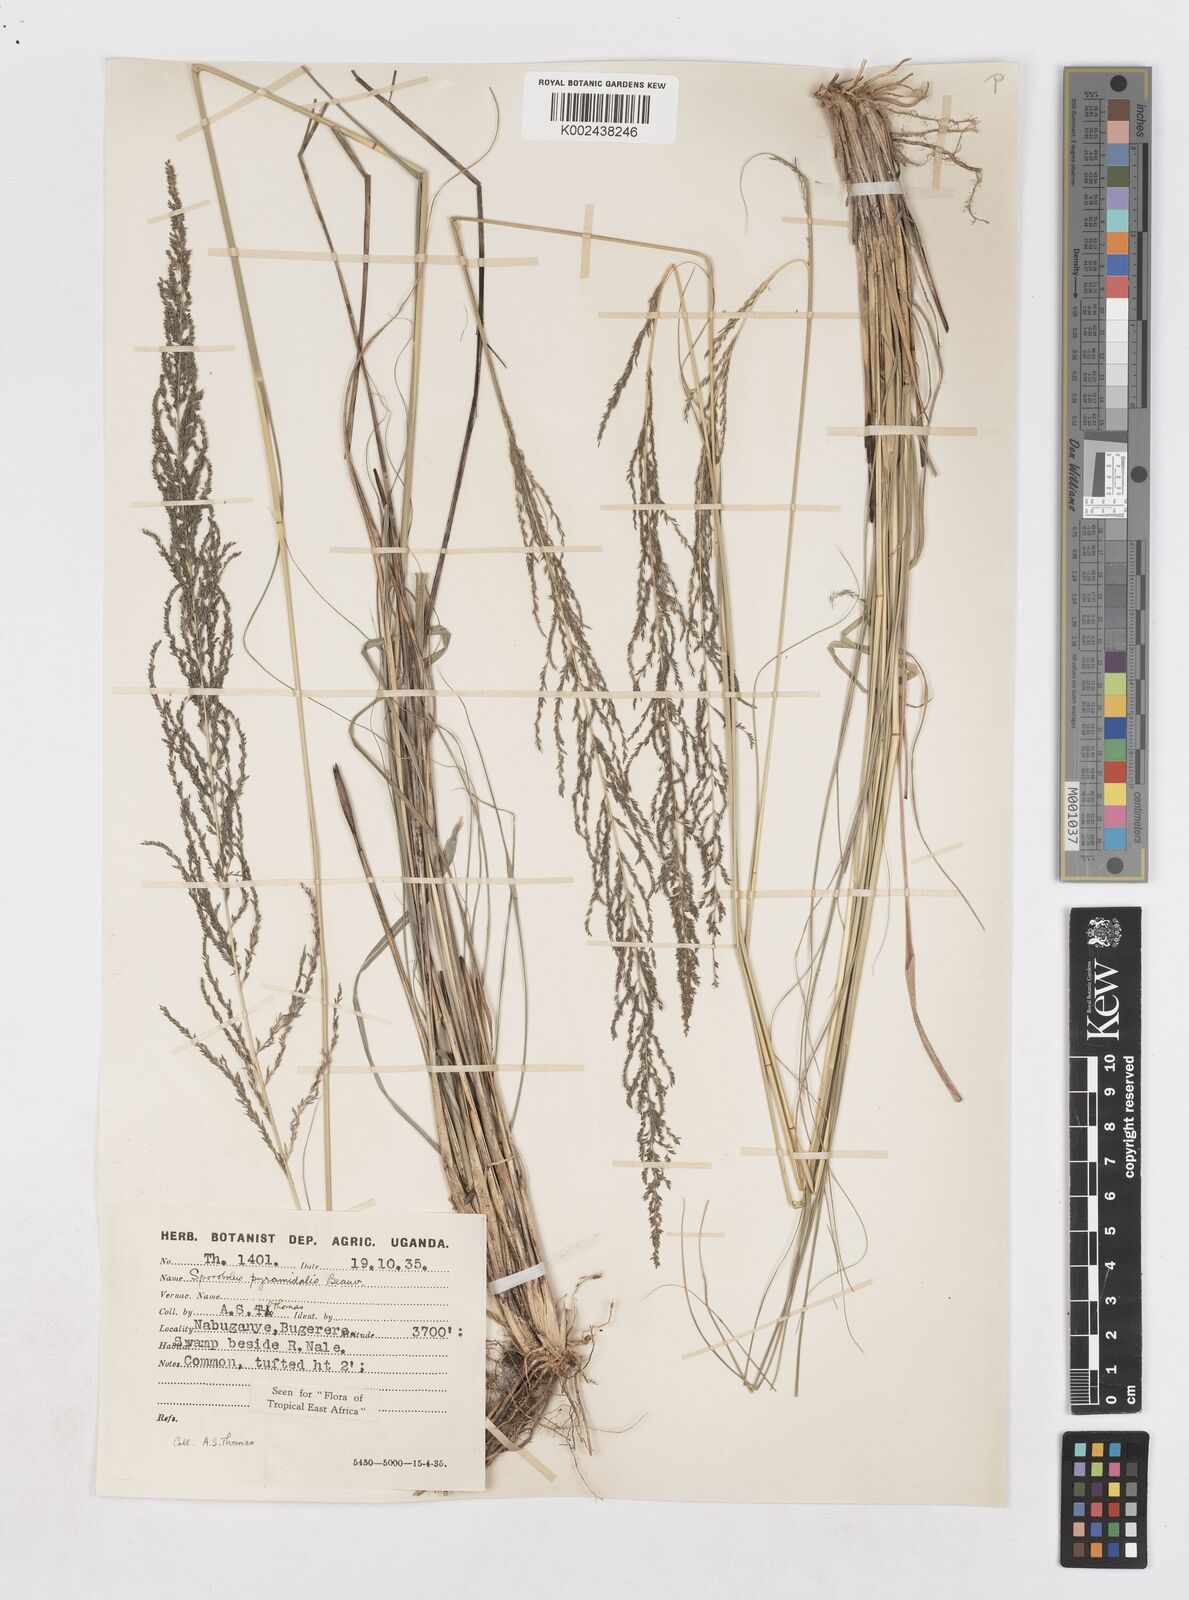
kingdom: Plantae
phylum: Tracheophyta
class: Liliopsida
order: Poales
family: Poaceae
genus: Sporobolus
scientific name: Sporobolus pyramidalis
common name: West indian dropseed
